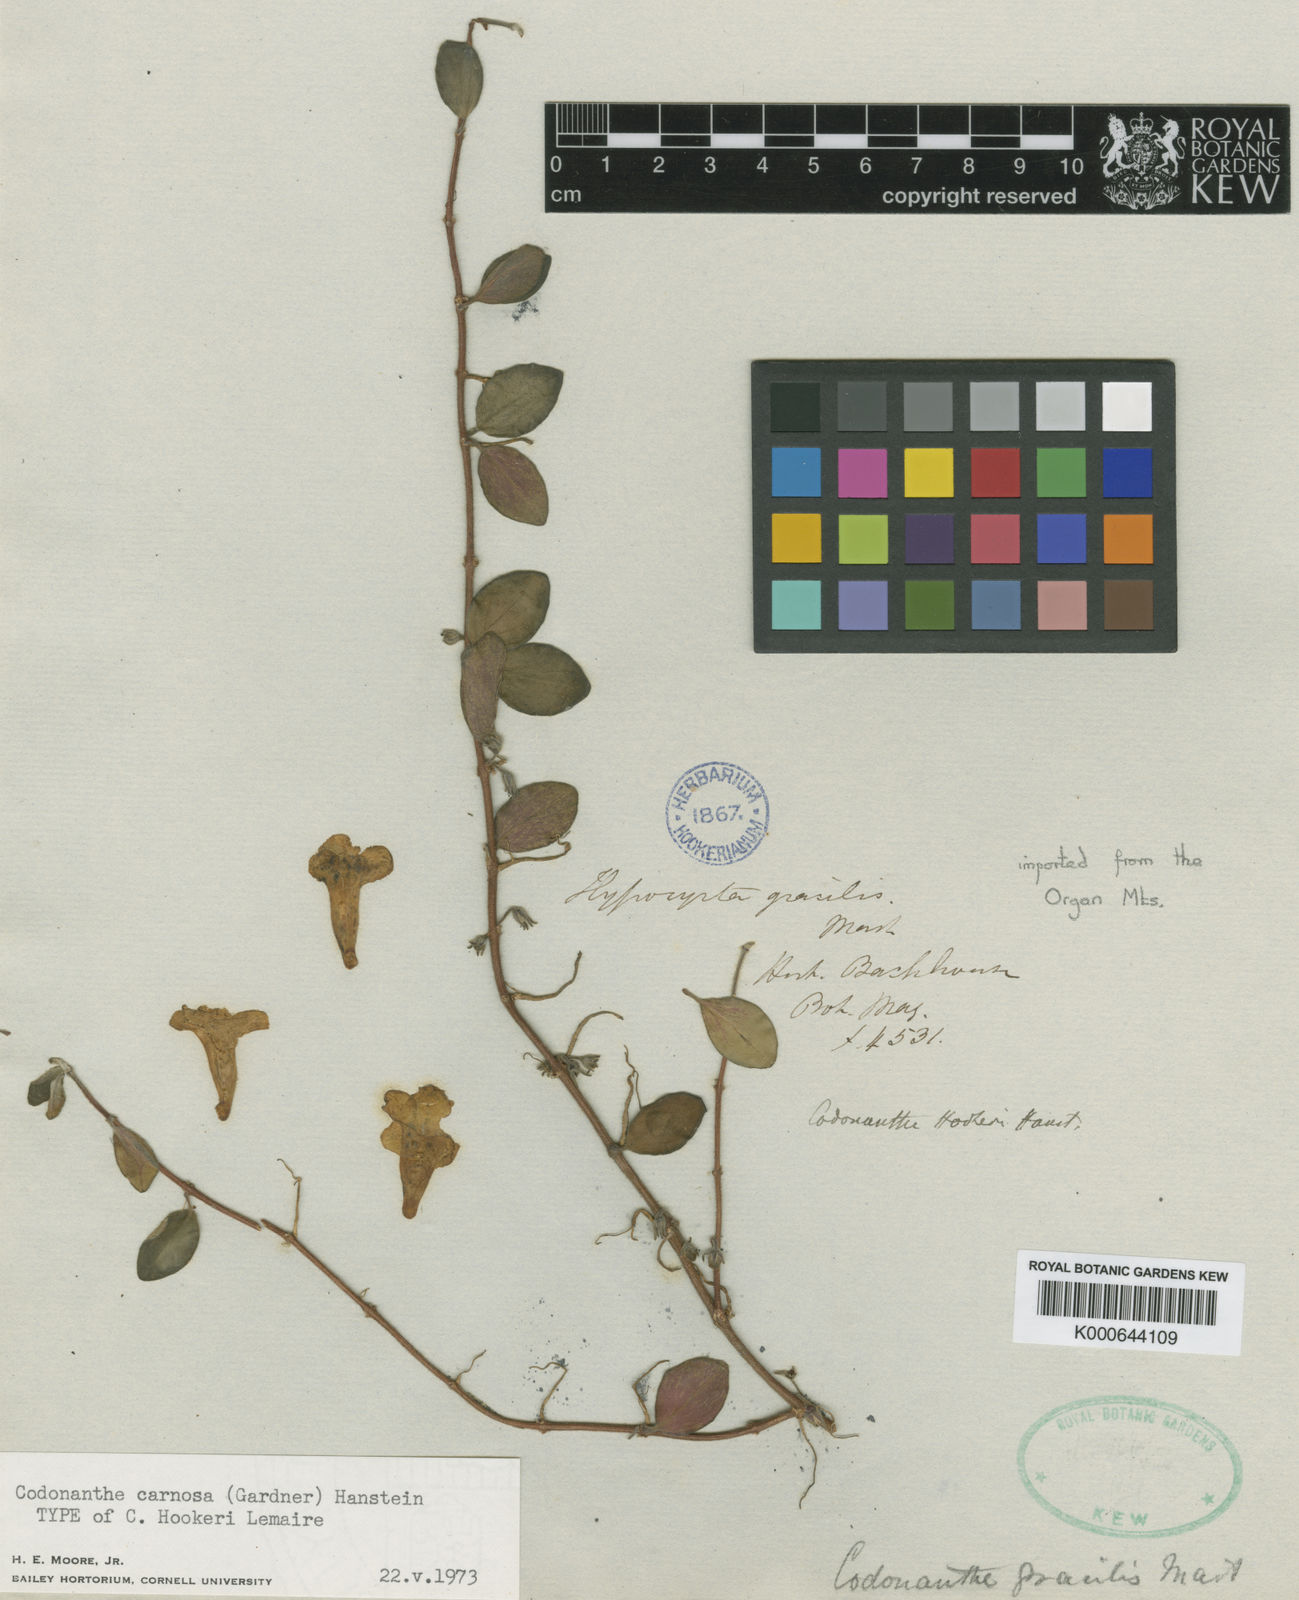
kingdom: Plantae
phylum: Tracheophyta
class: Magnoliopsida
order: Lamiales
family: Gesneriaceae
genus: Codonanthe
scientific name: Codonanthe carnosa
